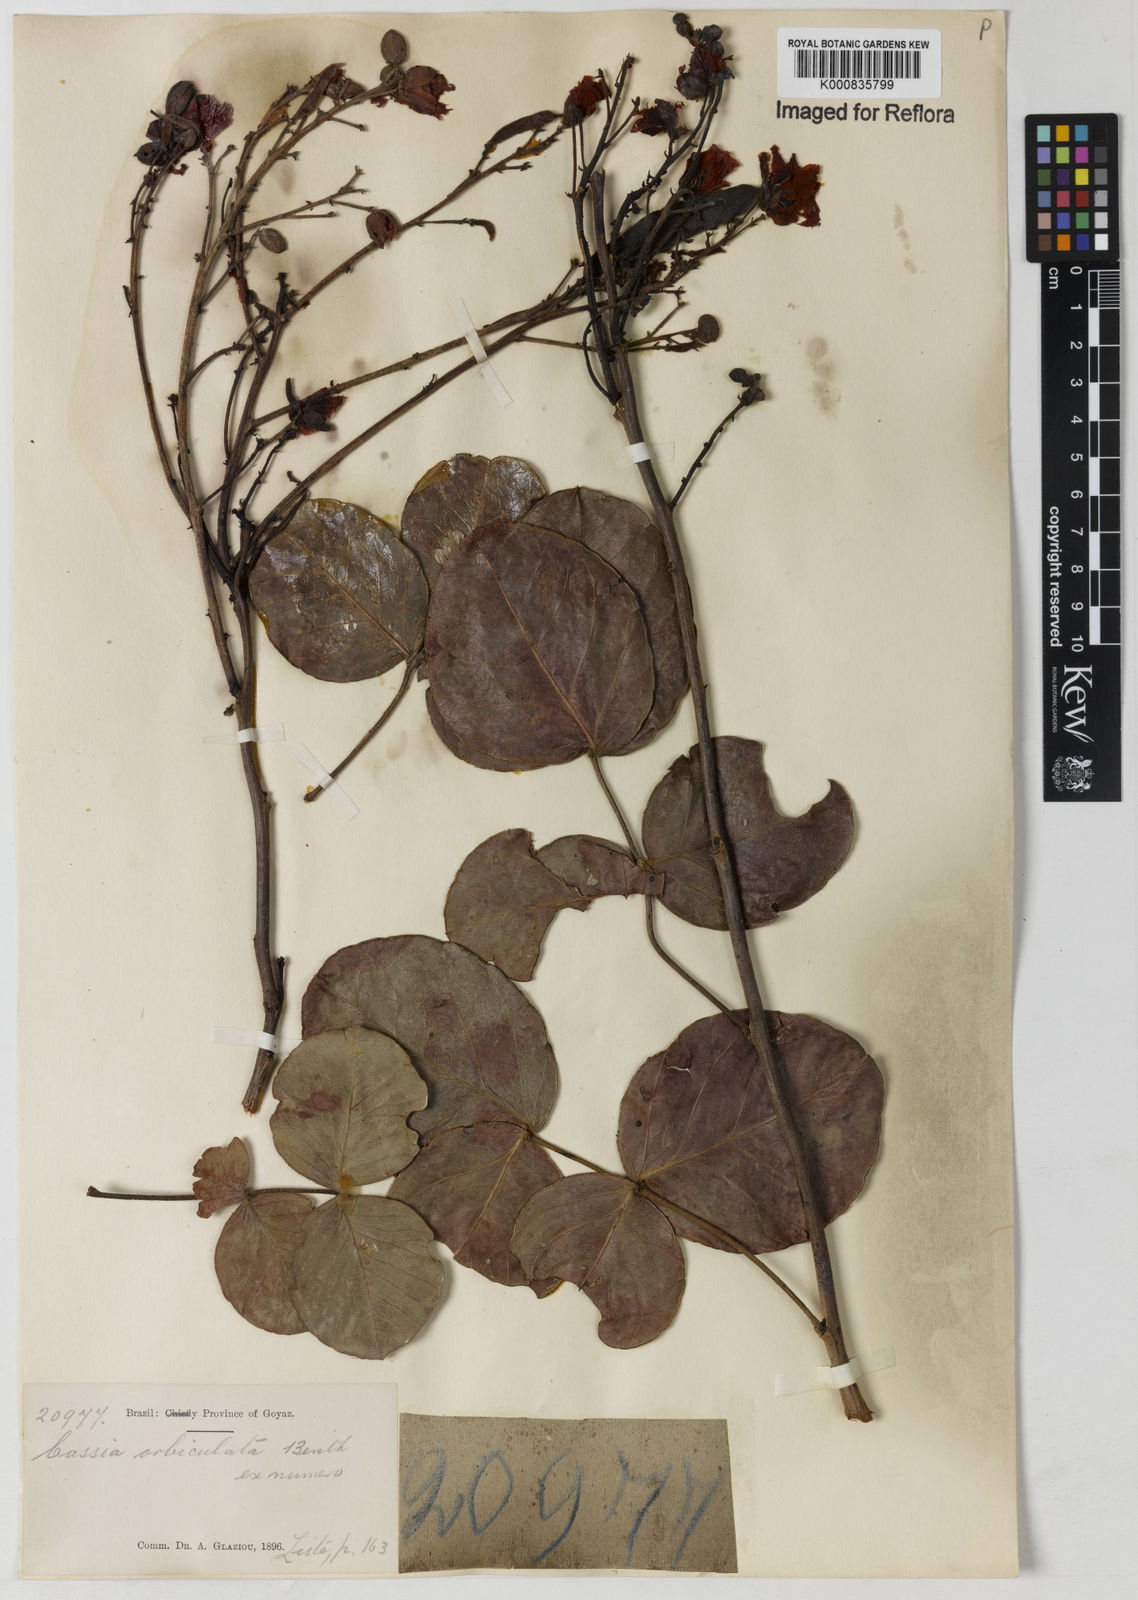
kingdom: Plantae
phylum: Tracheophyta
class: Magnoliopsida
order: Fabales
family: Fabaceae
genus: Chamaecrista
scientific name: Chamaecrista orbiculata
